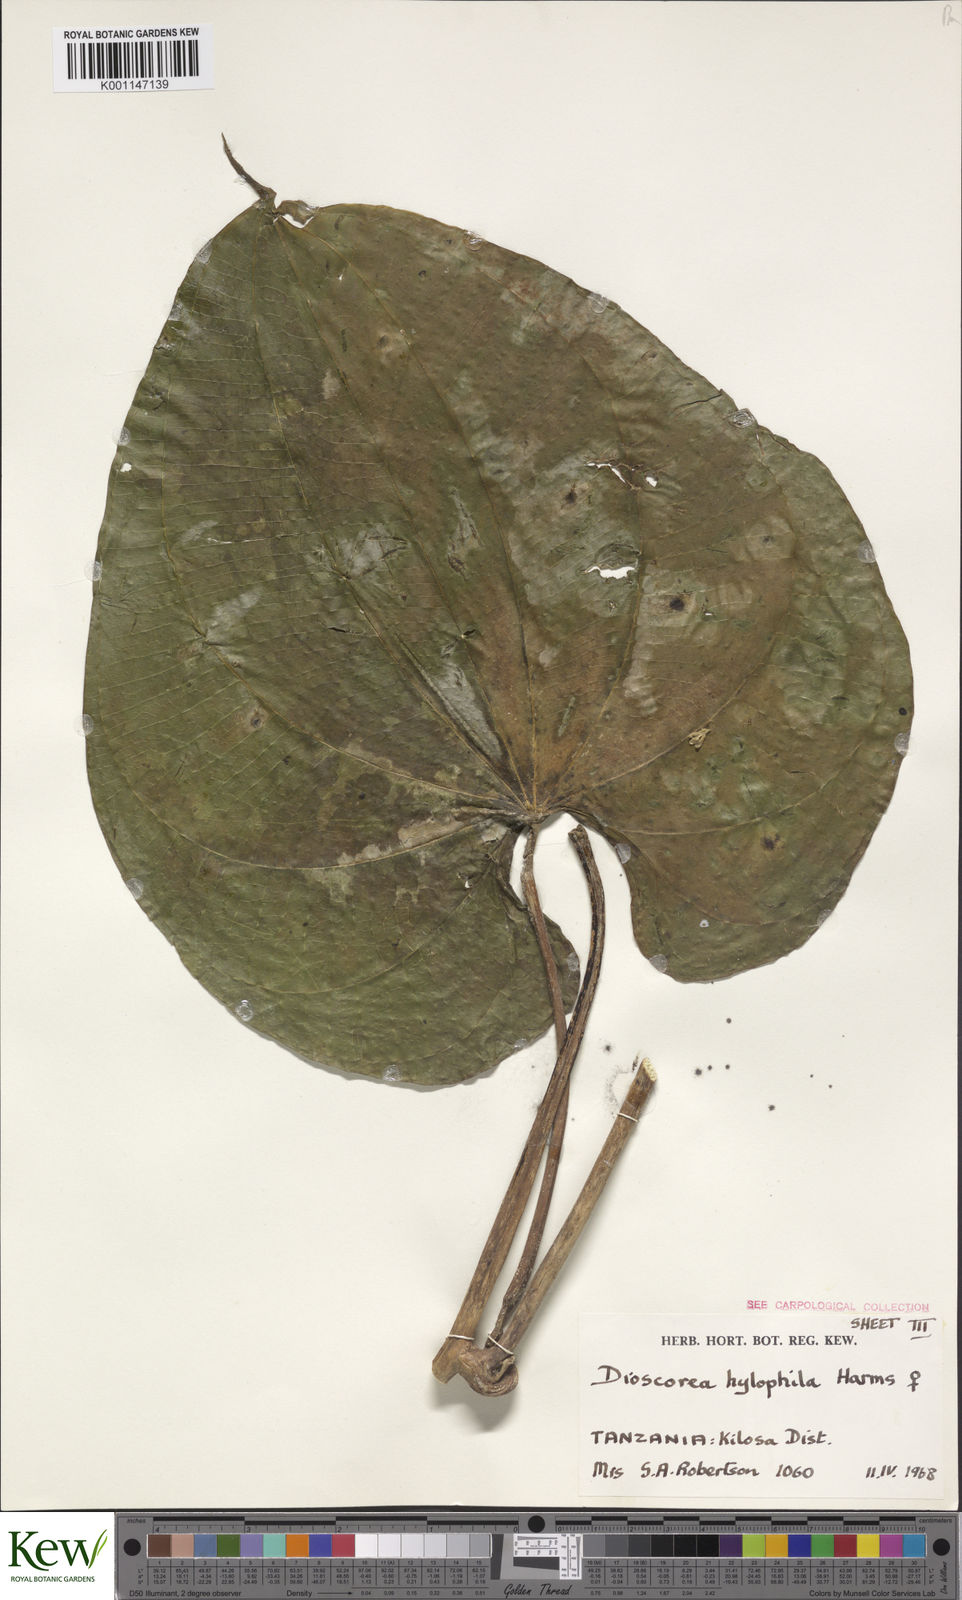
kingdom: Plantae
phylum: Tracheophyta
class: Liliopsida
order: Dioscoreales
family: Dioscoreaceae
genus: Dioscorea
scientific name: Dioscorea
